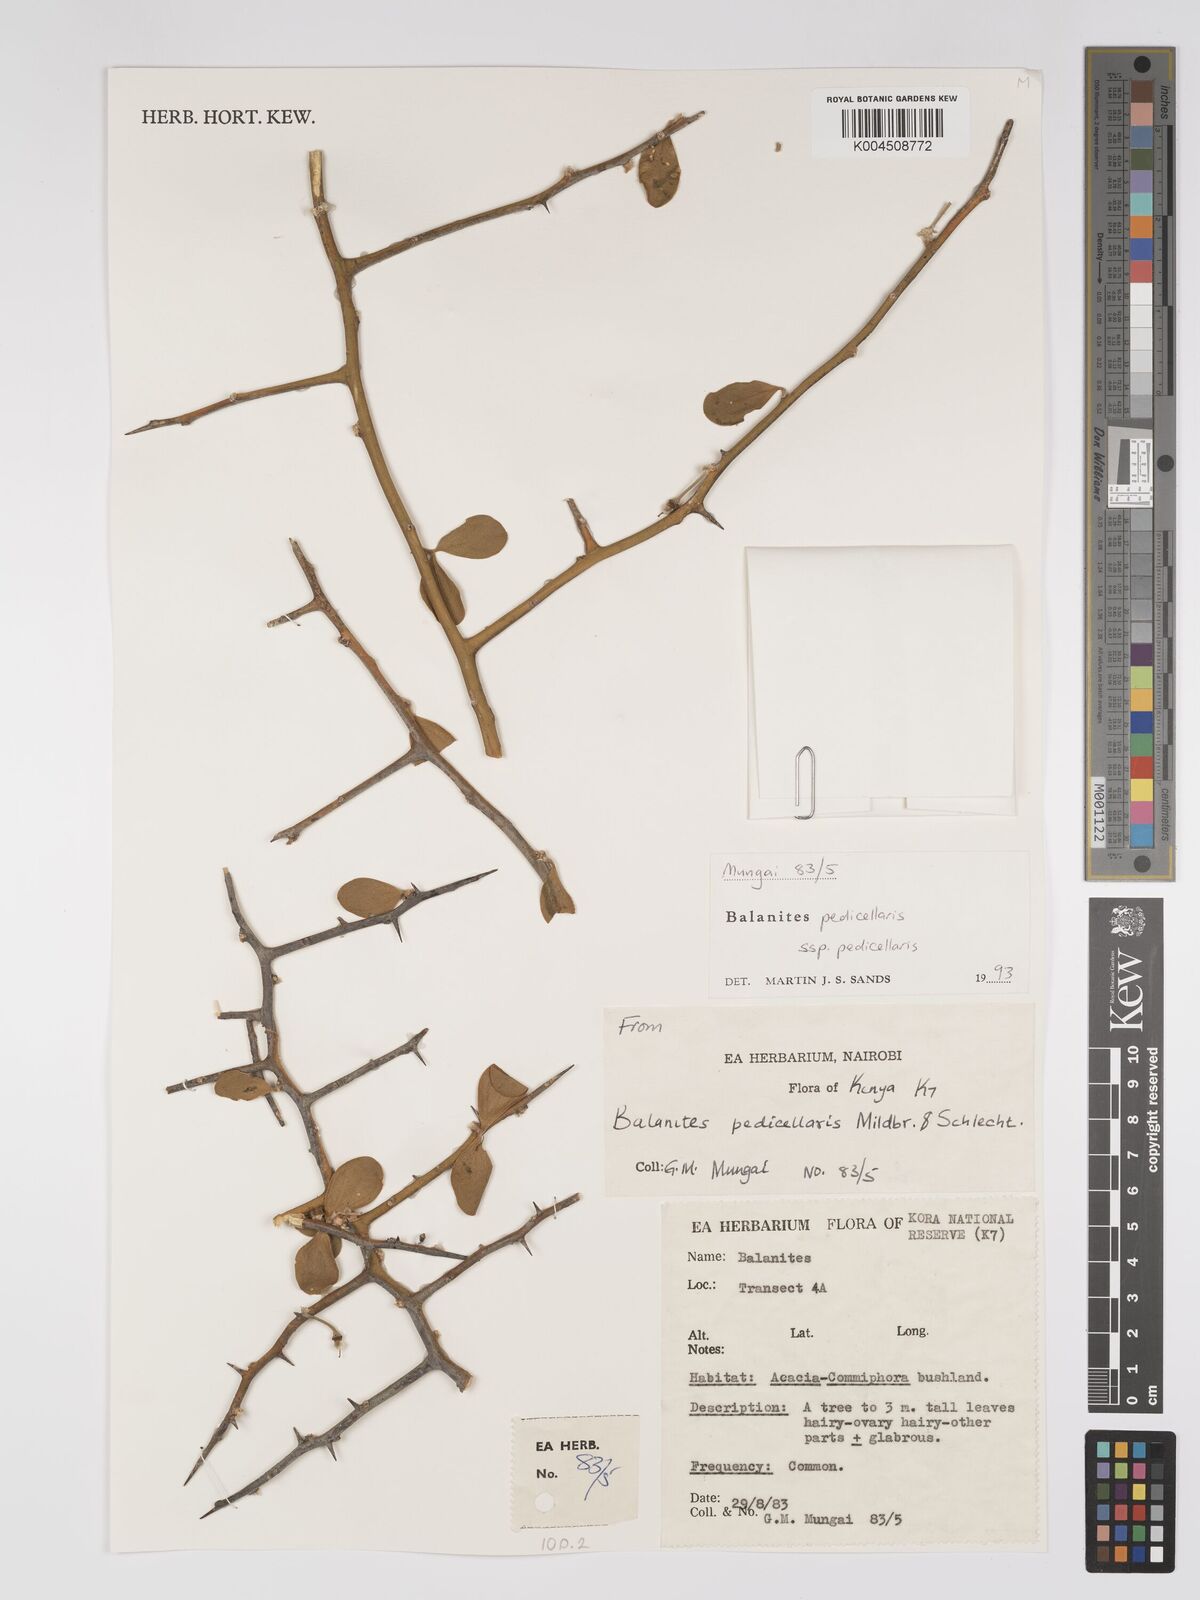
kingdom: Plantae
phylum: Tracheophyta
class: Magnoliopsida
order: Zygophyllales
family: Zygophyllaceae
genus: Balanites
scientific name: Balanites pedicellaris
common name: Small green-thorn
